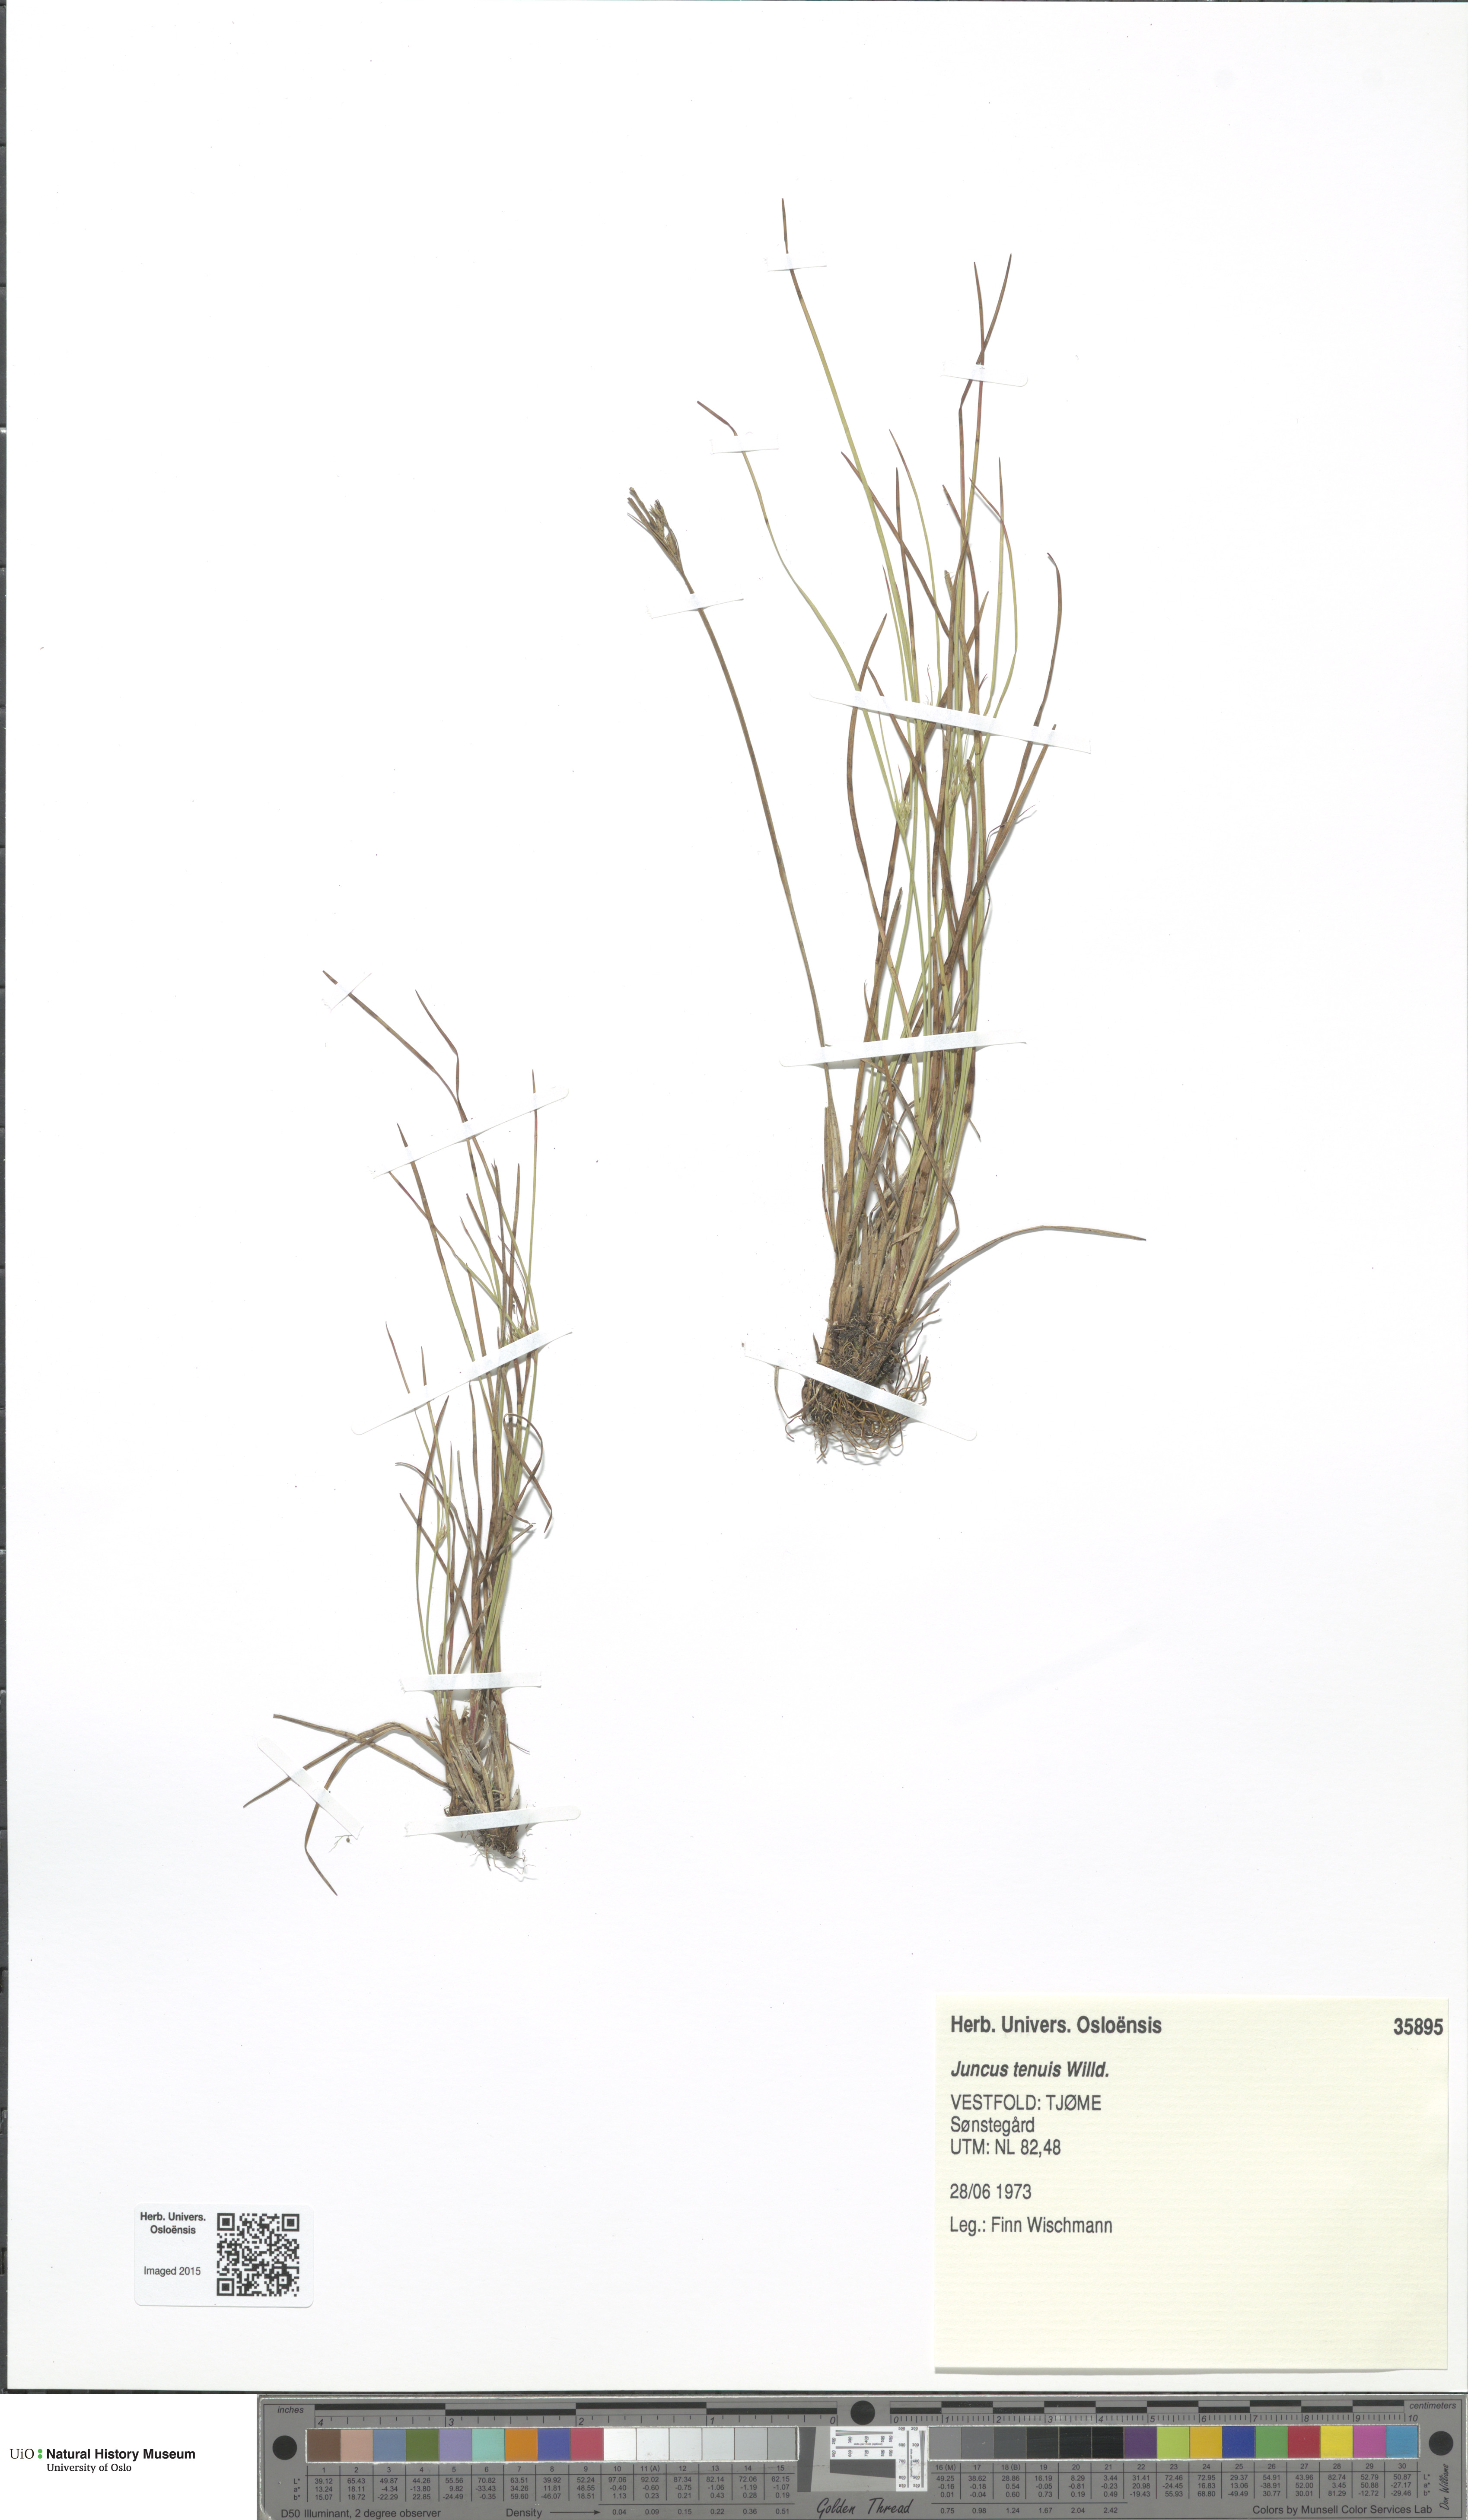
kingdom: Plantae
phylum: Tracheophyta
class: Liliopsida
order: Poales
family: Juncaceae
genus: Juncus
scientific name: Juncus tenuis
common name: Slender rush
